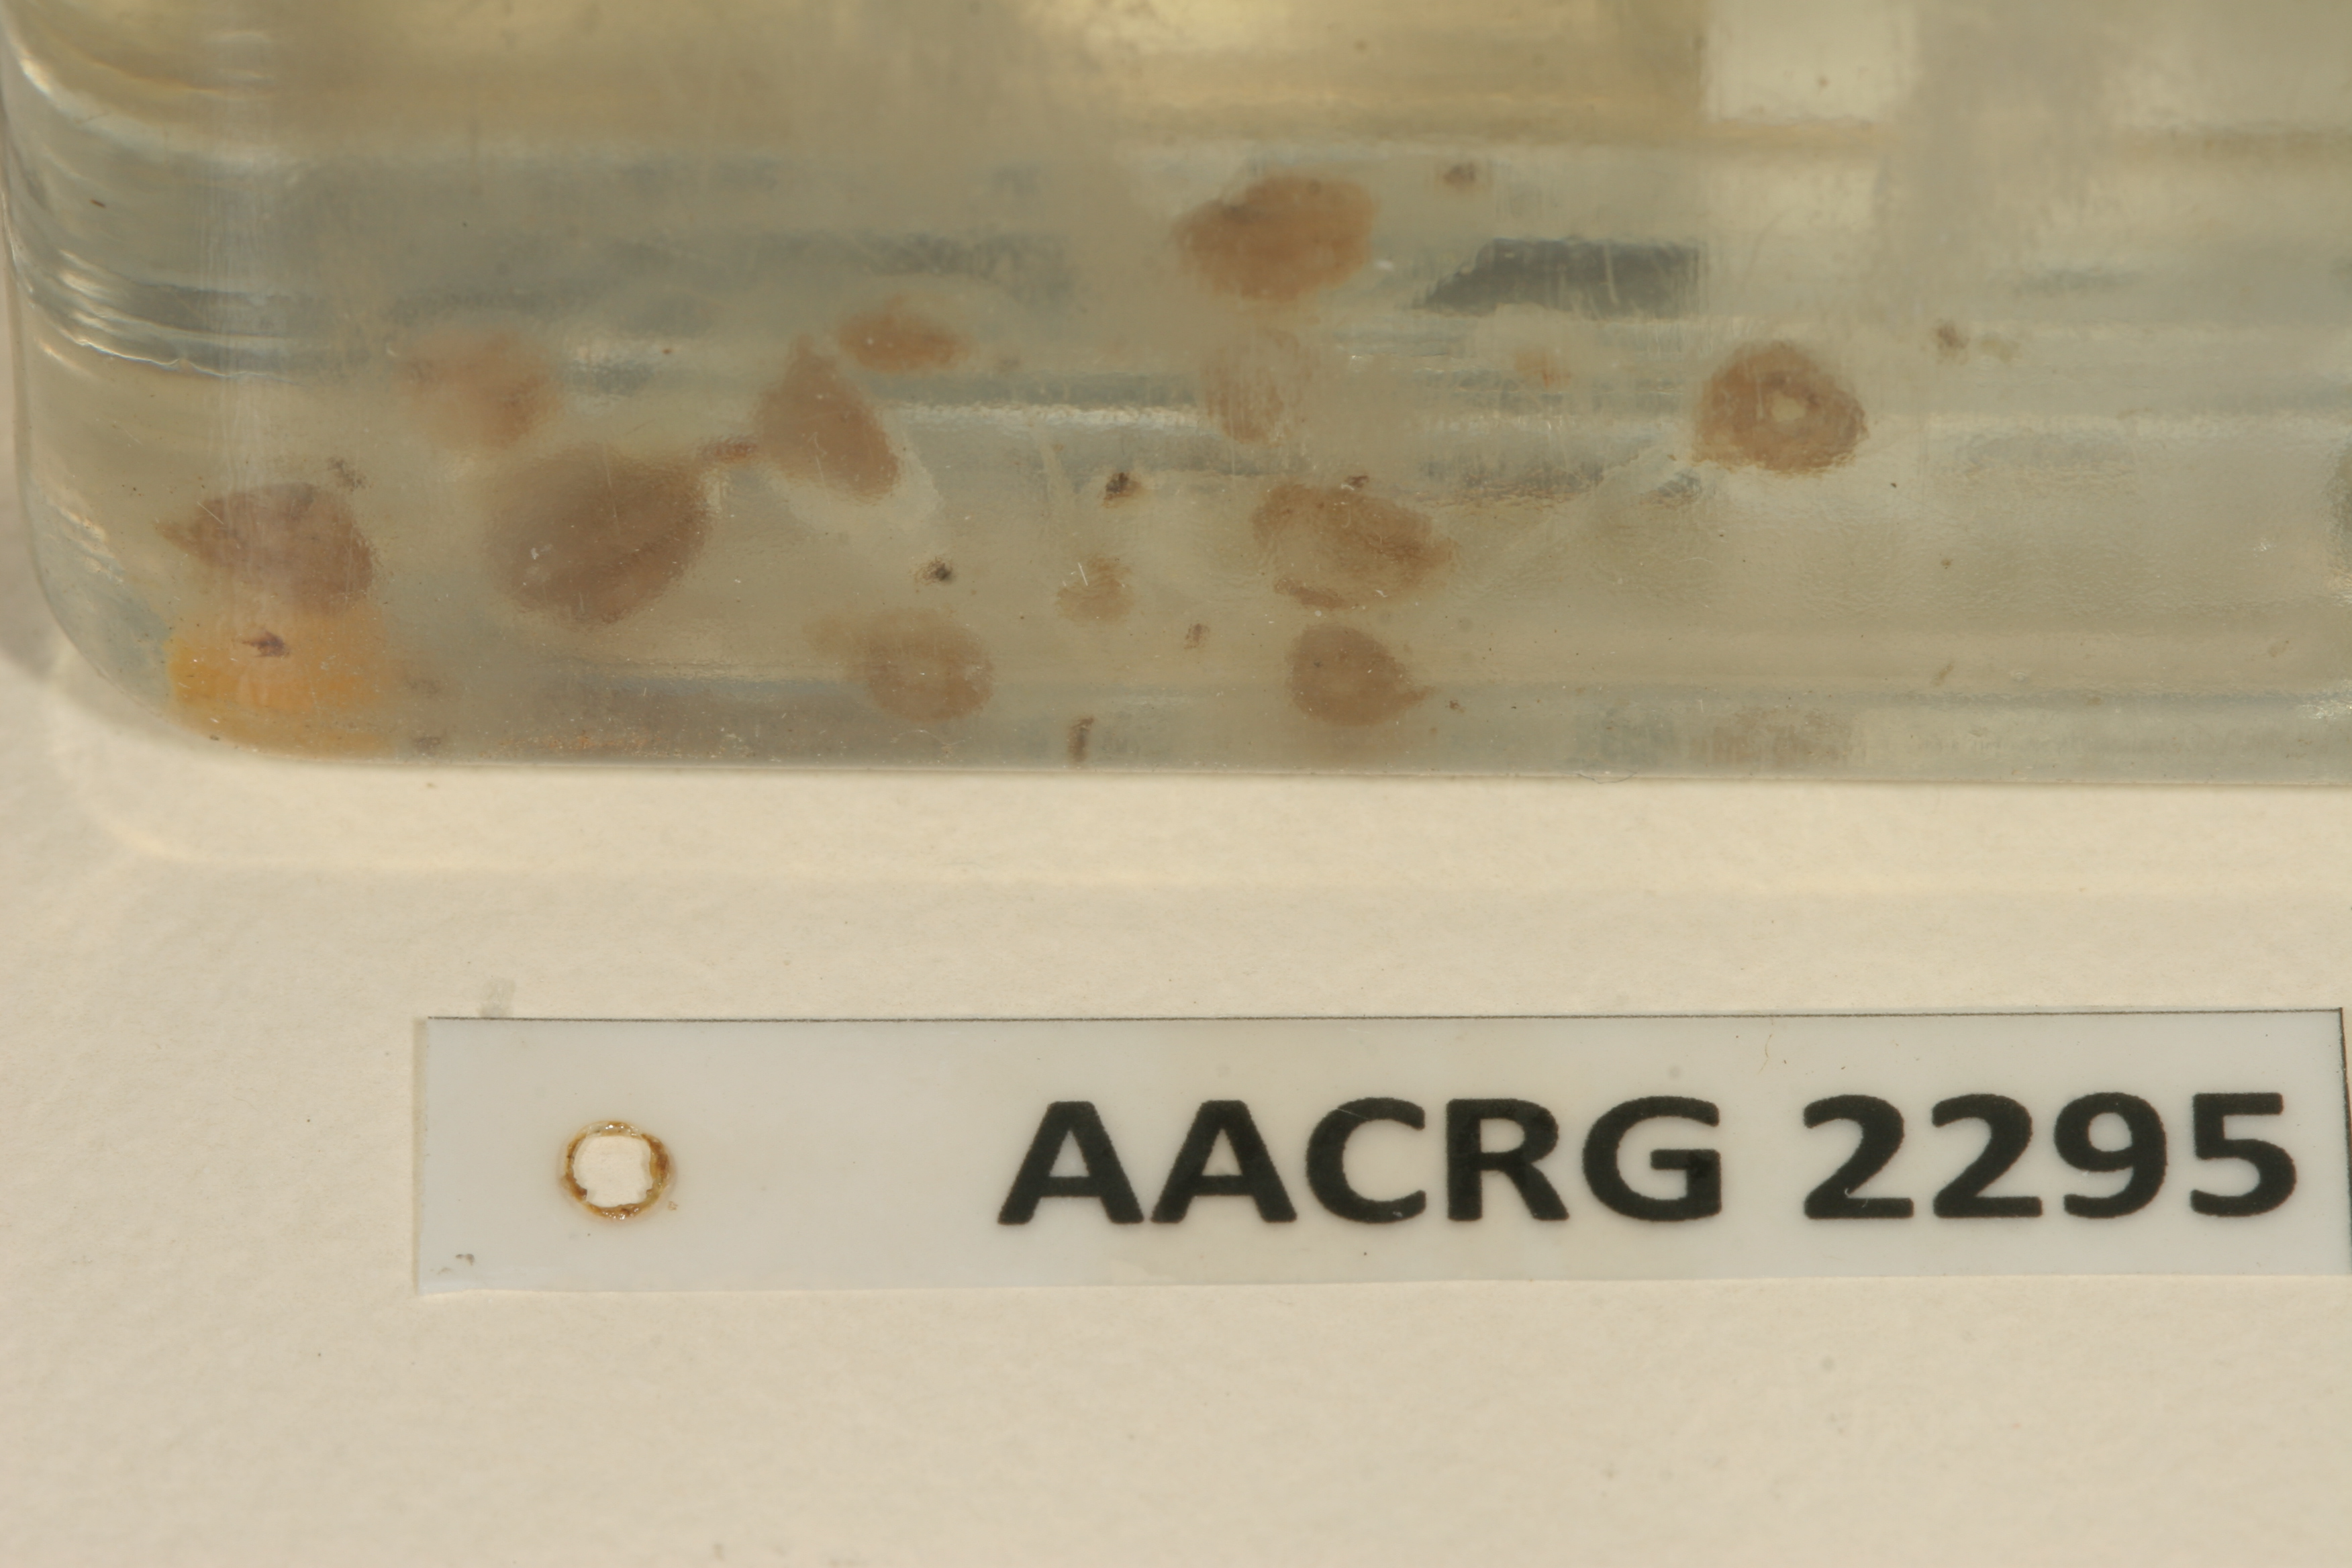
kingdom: Animalia
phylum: Chordata
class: Amphibia
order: Anura
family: Pyxicephalidae
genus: Tomopterna
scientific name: Tomopterna delalandii
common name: Delalande's burrowing bullfrog
